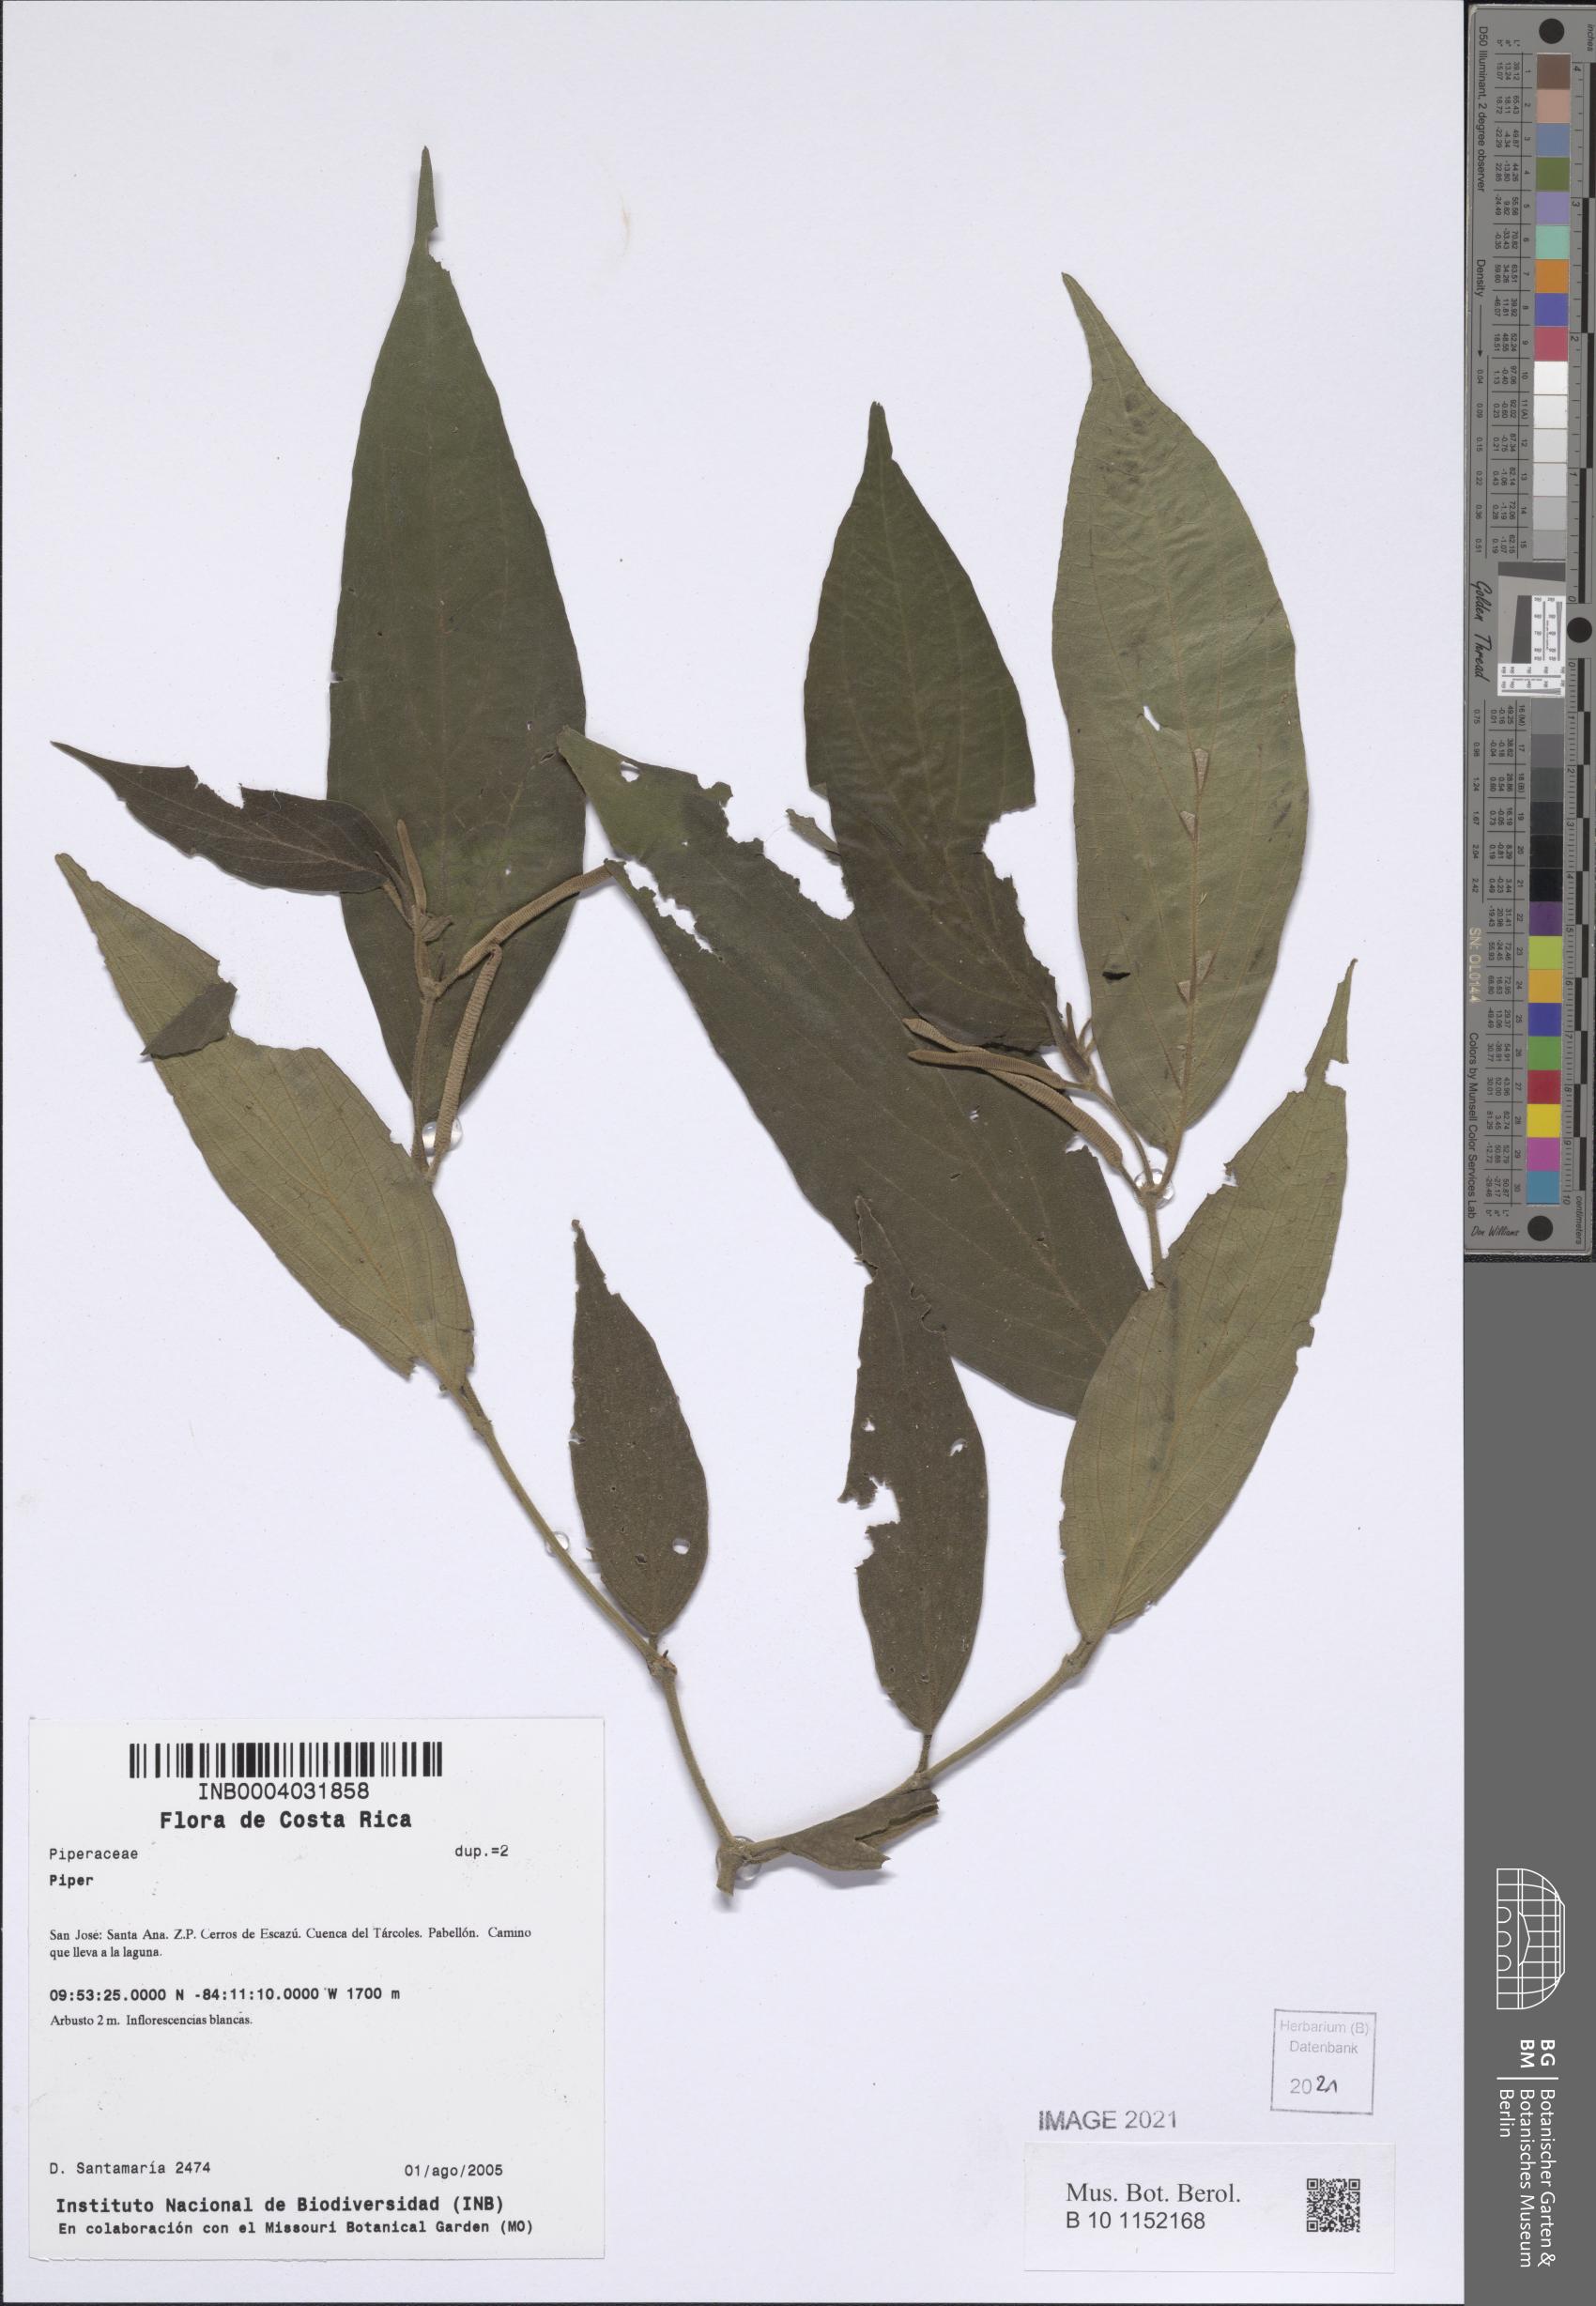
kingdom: Plantae
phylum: Tracheophyta
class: Magnoliopsida
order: Piperales
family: Piperaceae
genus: Piper
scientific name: Piper
